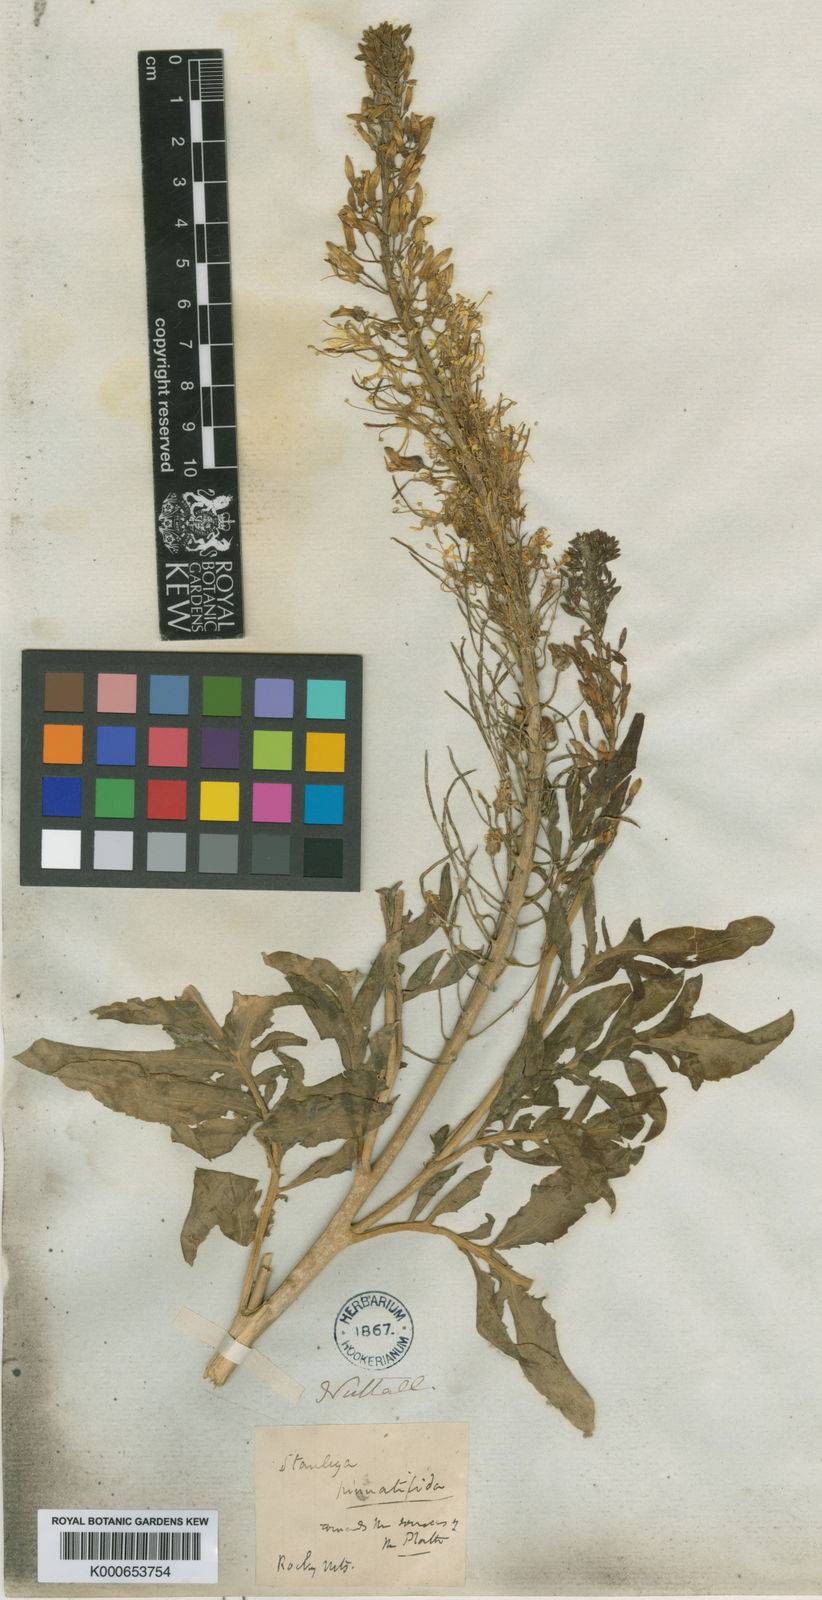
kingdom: Plantae
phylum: Tracheophyta
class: Magnoliopsida
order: Brassicales
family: Brassicaceae
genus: Stanleya
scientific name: Stanleya pinnata
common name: Prince's-plume
